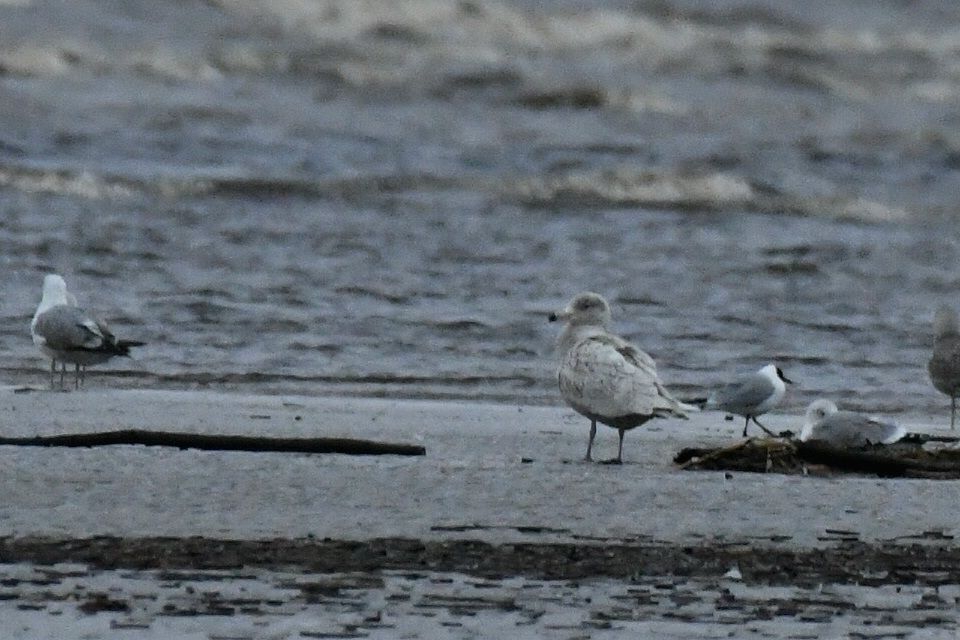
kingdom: Animalia
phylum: Chordata
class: Aves
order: Charadriiformes
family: Laridae
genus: Larus
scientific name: Larus hyperboreus
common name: Glaucous gull
